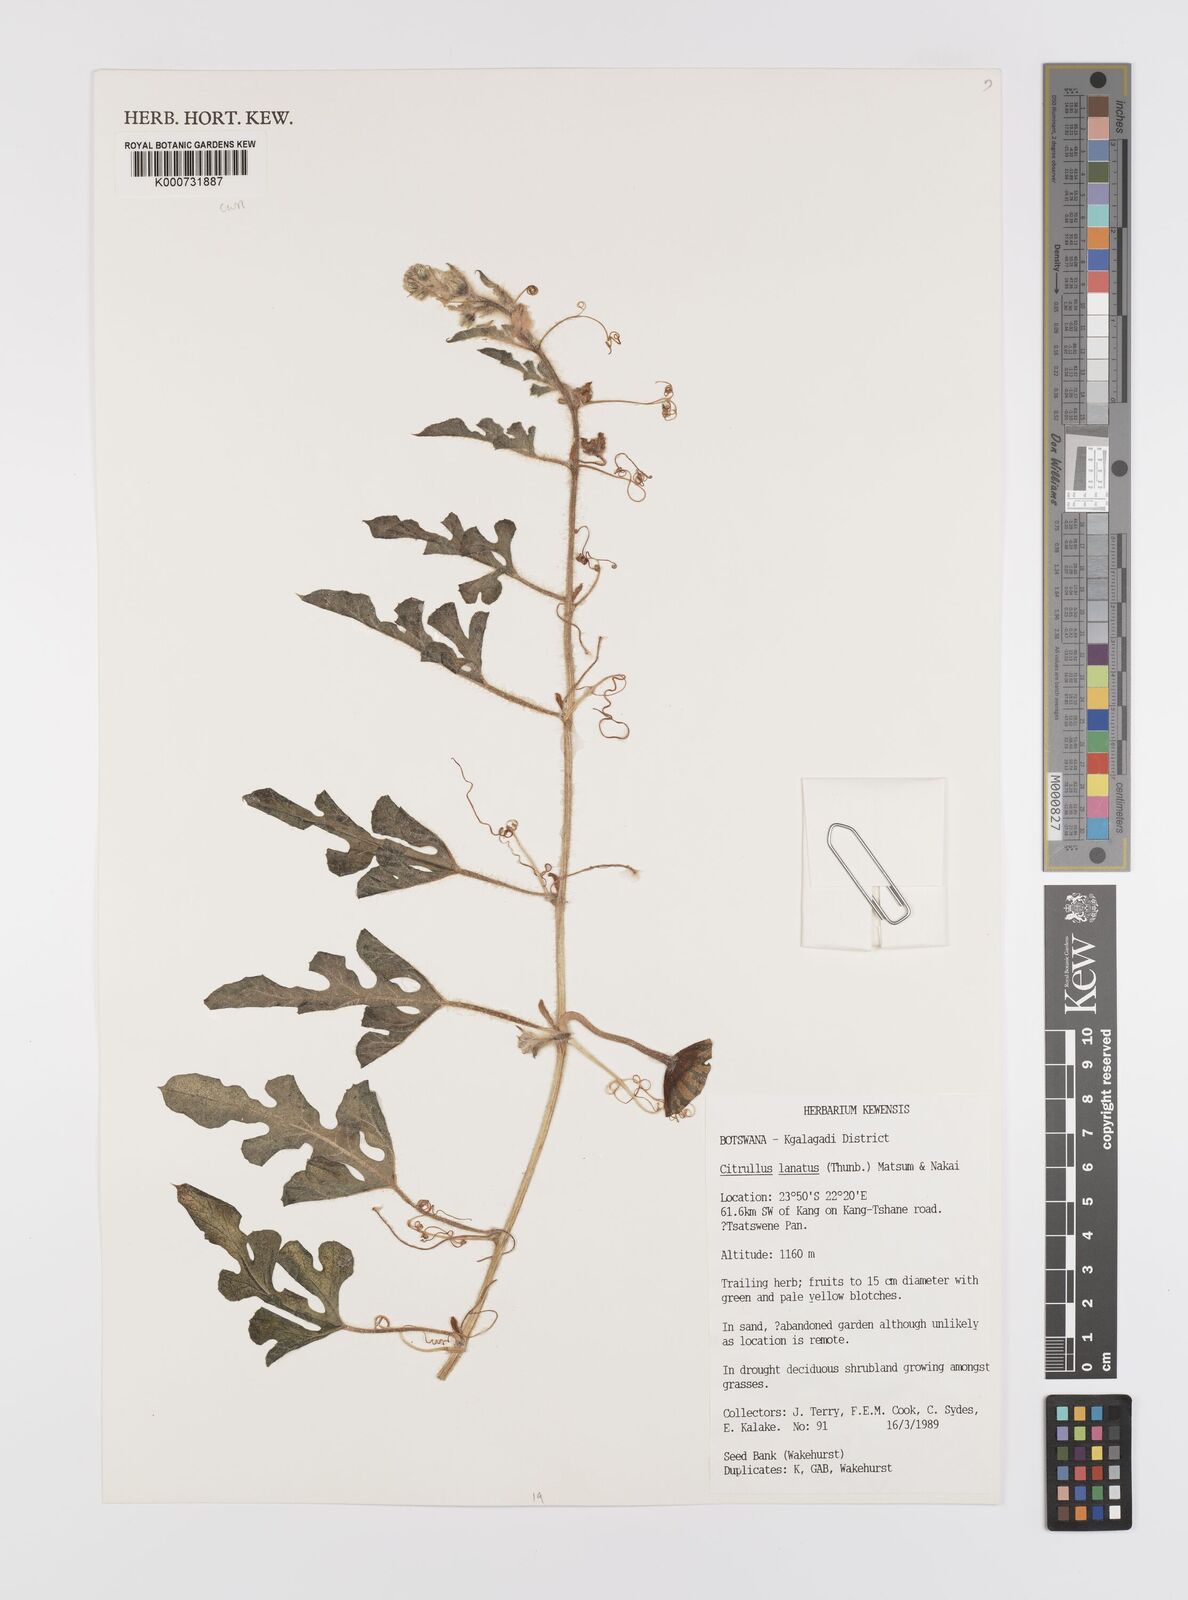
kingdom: Plantae
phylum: Tracheophyta
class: Magnoliopsida
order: Cucurbitales
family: Cucurbitaceae
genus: Citrullus
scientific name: Citrullus lanatus
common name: Watermelon
